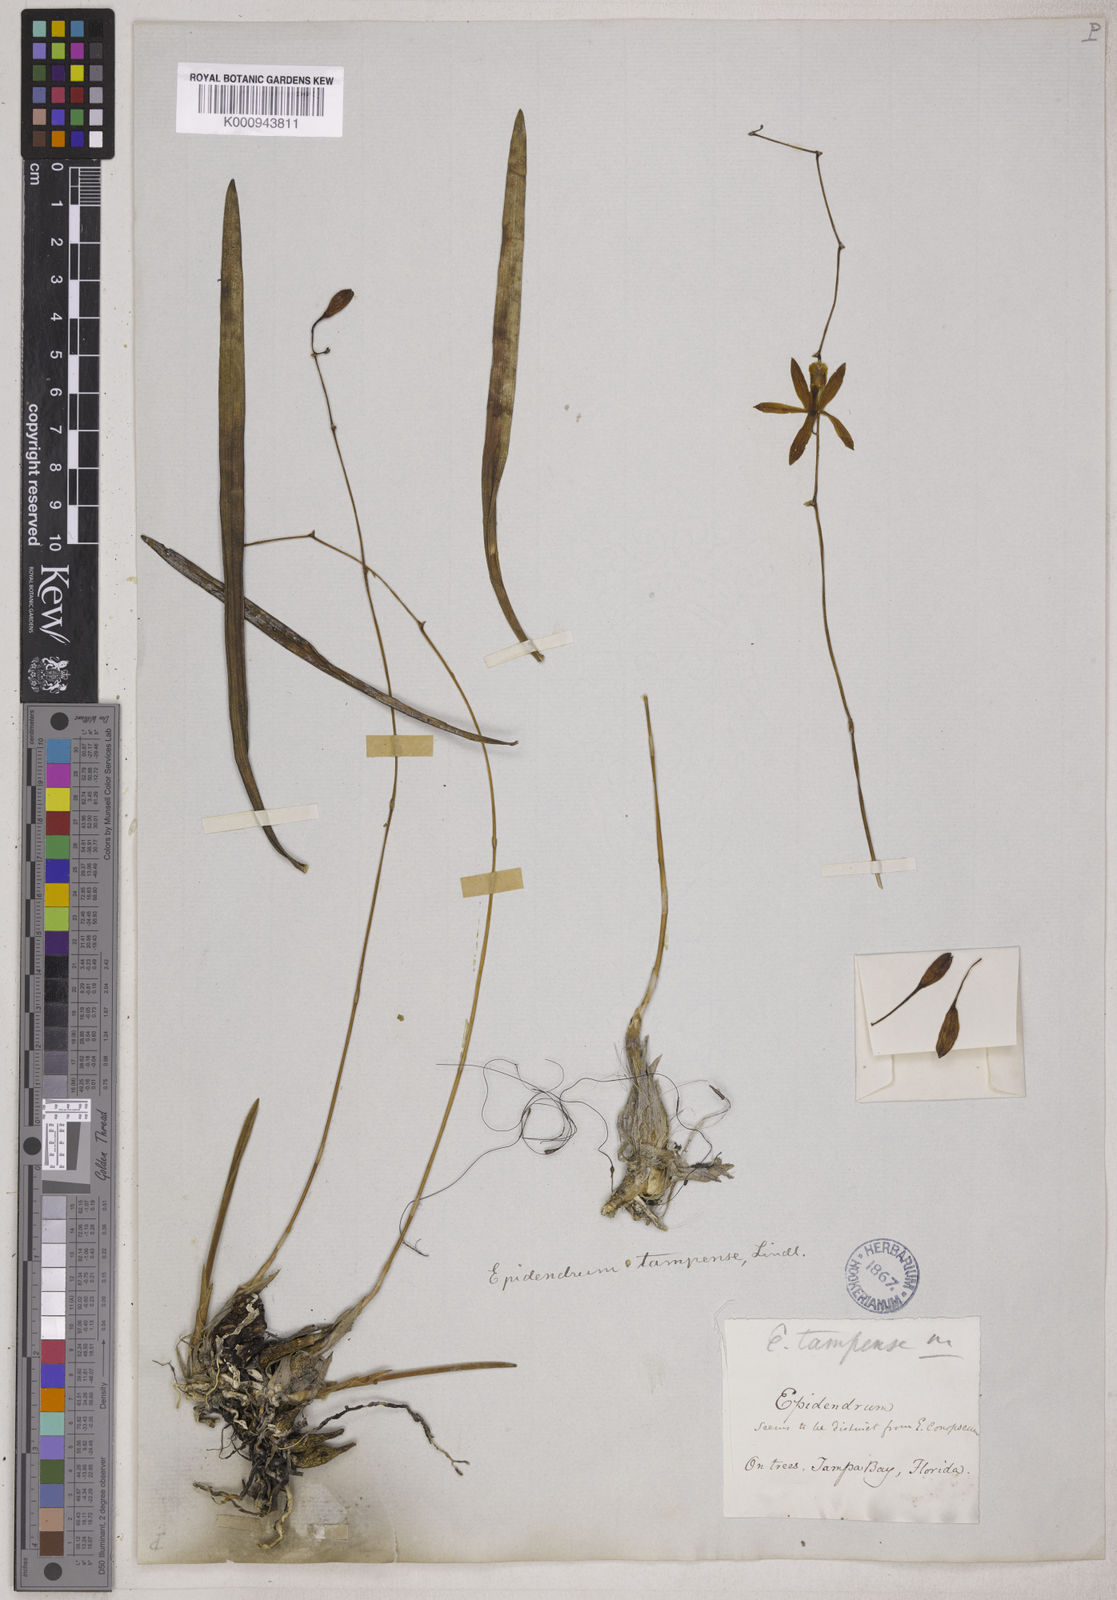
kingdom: Plantae
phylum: Tracheophyta
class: Liliopsida
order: Asparagales
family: Orchidaceae
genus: Encyclia
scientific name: Encyclia tampensis
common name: Florida butterfly orchid
